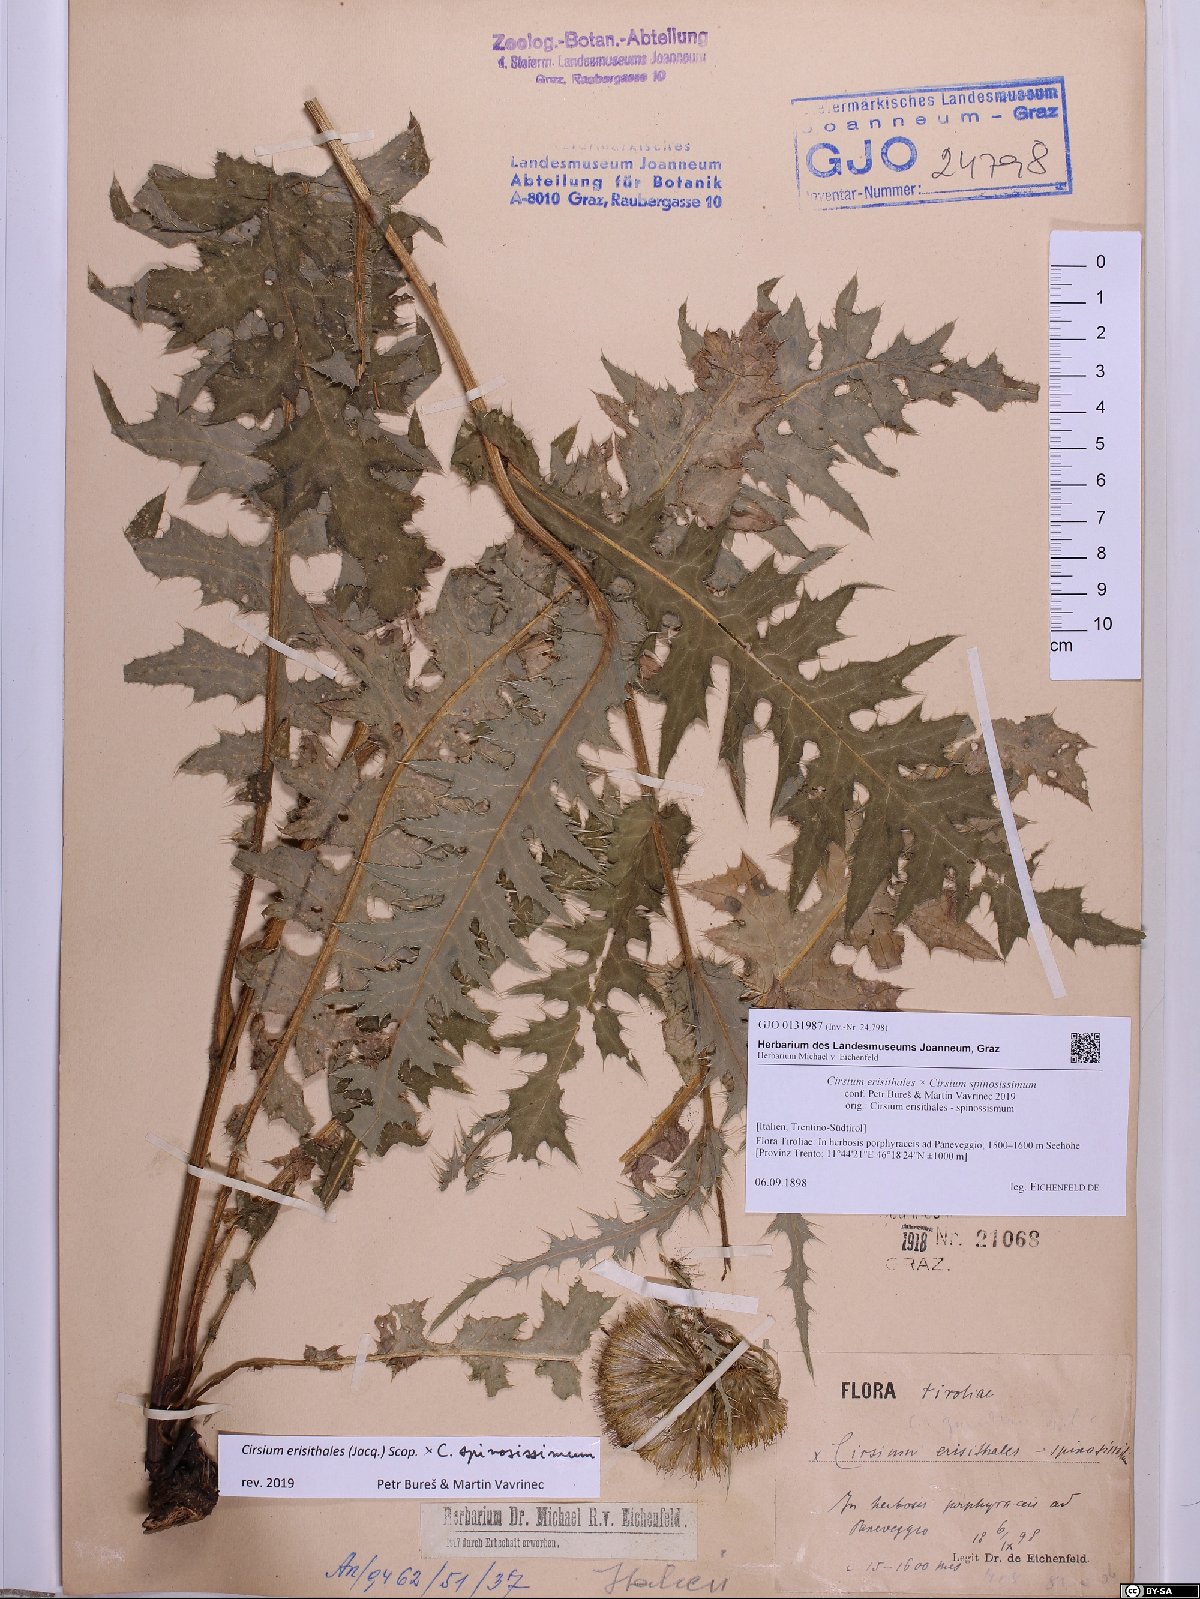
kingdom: Plantae
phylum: Tracheophyta
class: Magnoliopsida
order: Asterales
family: Asteraceae
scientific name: Asteraceae
